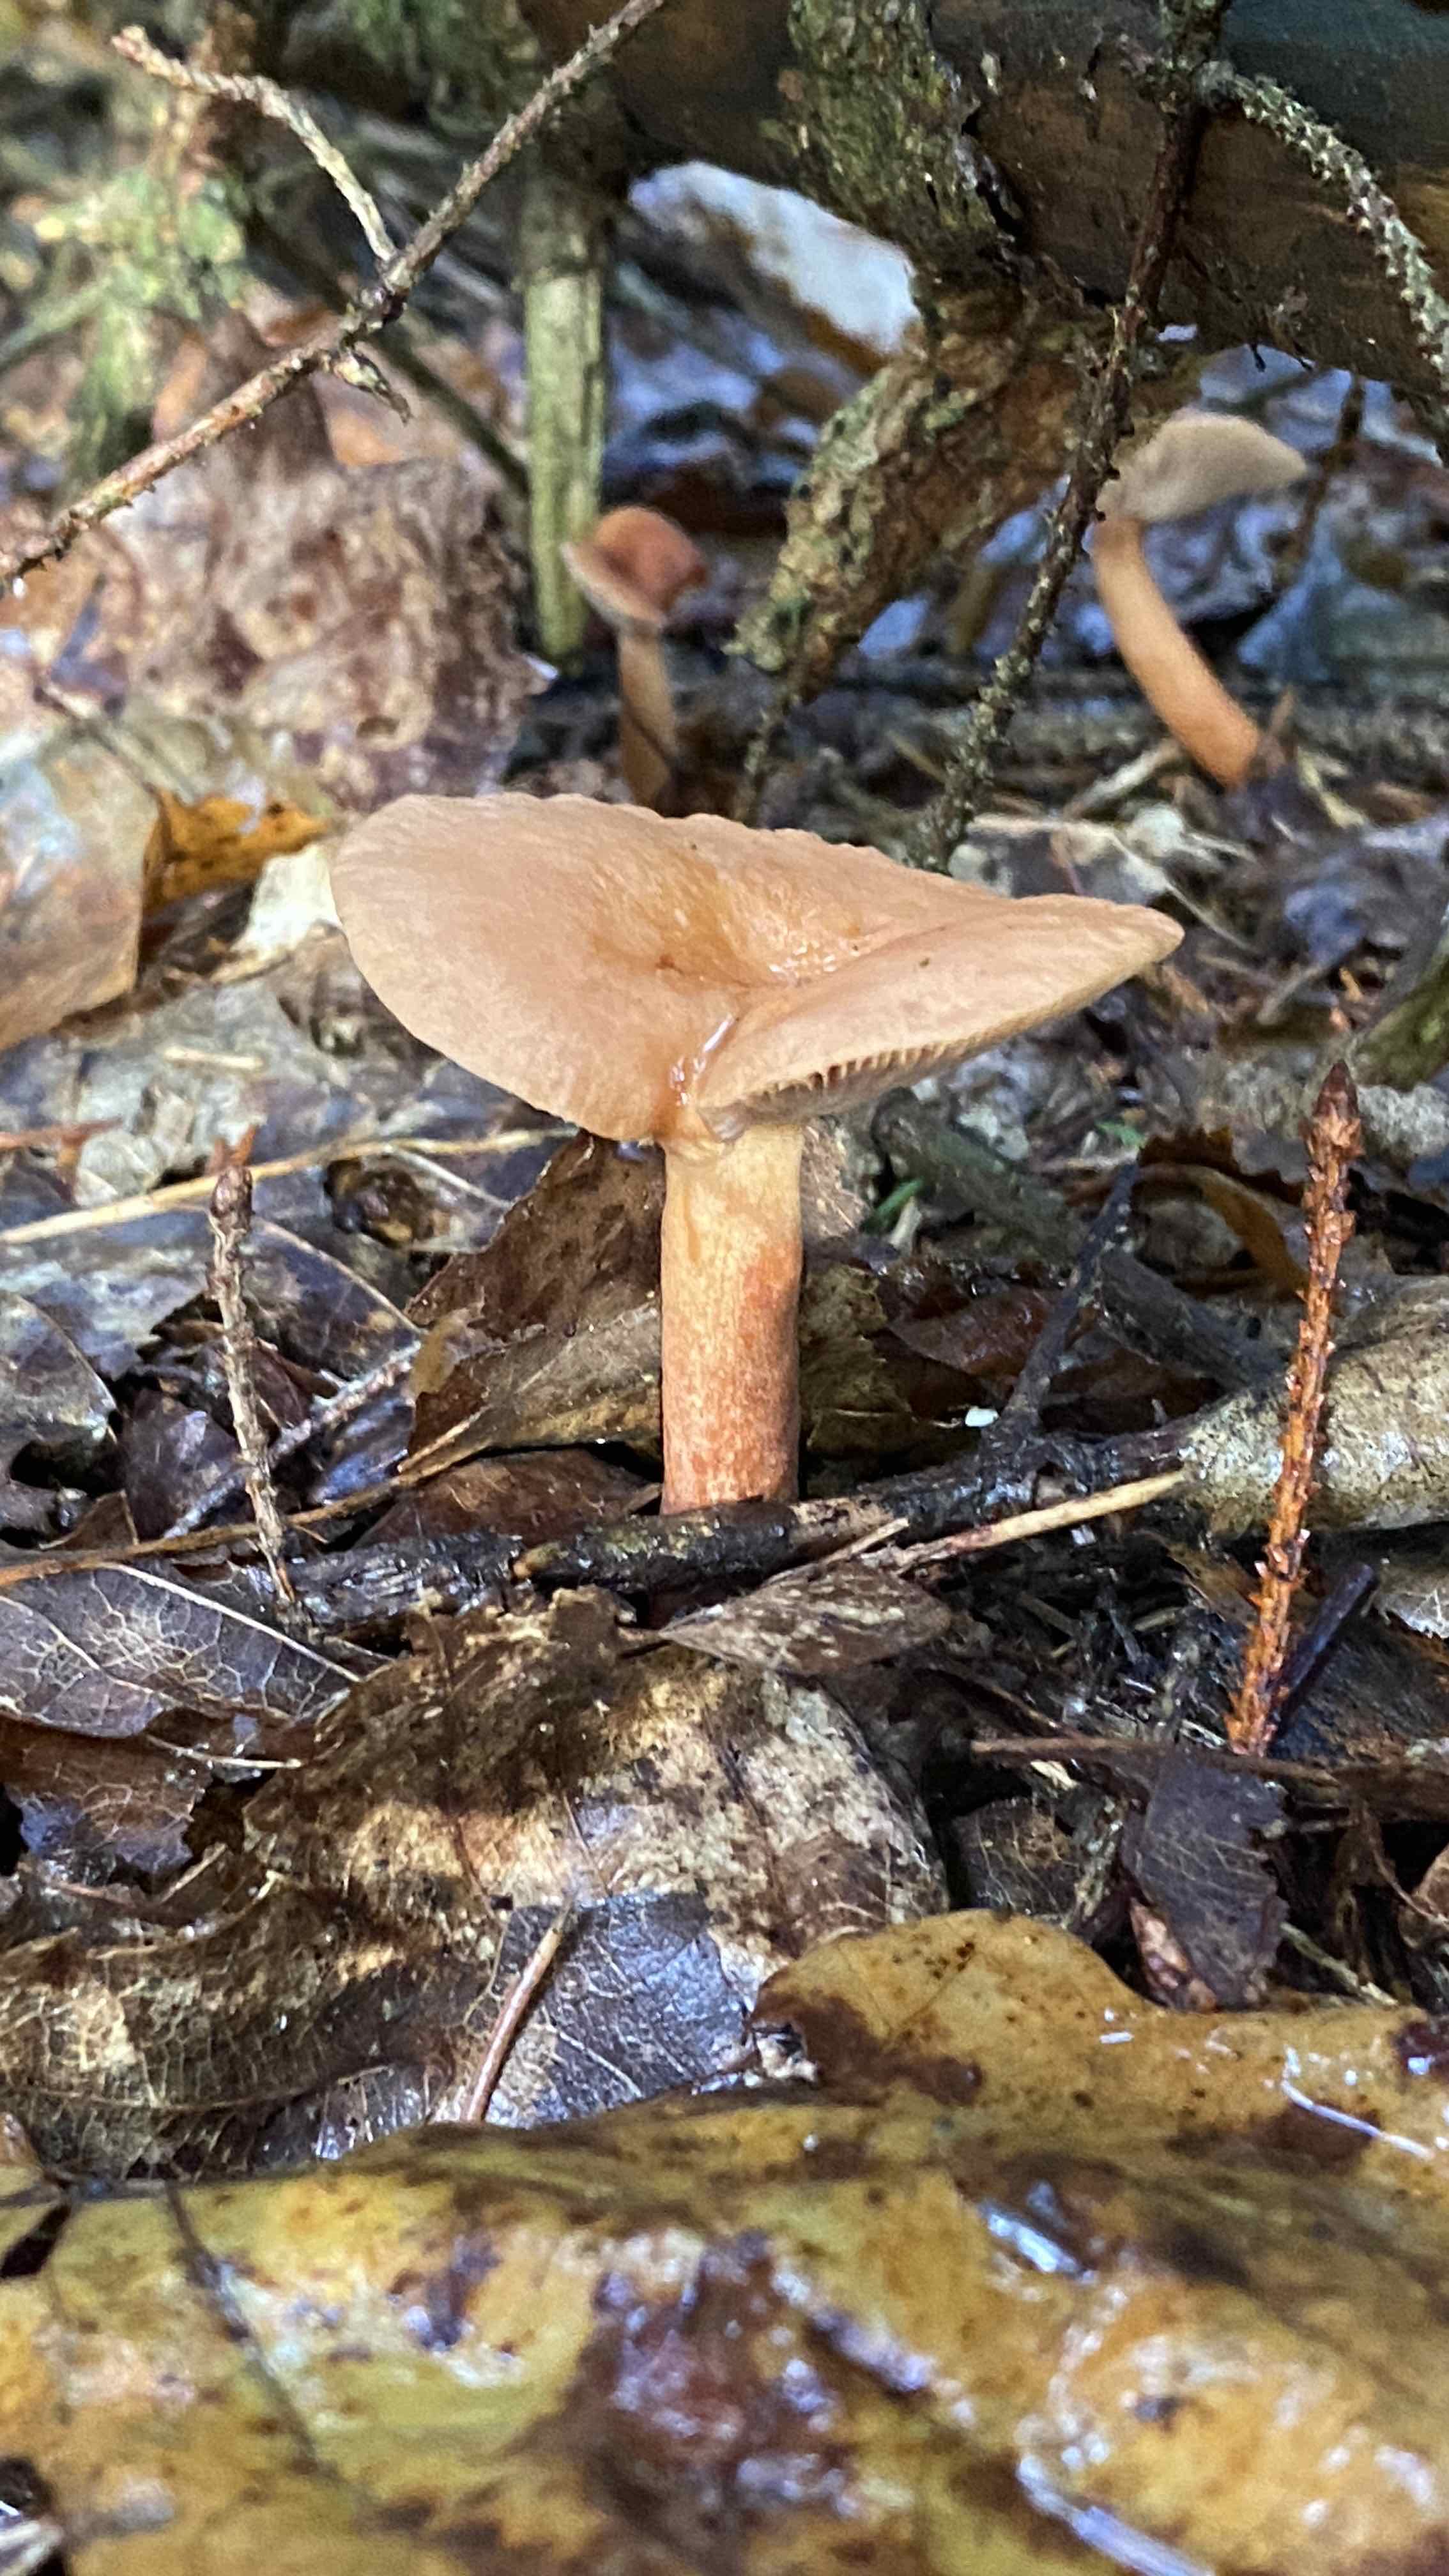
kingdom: Fungi
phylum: Basidiomycota
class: Agaricomycetes
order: Russulales
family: Russulaceae
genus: Lactarius
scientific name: Lactarius tabidus
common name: rynket mælkehat
